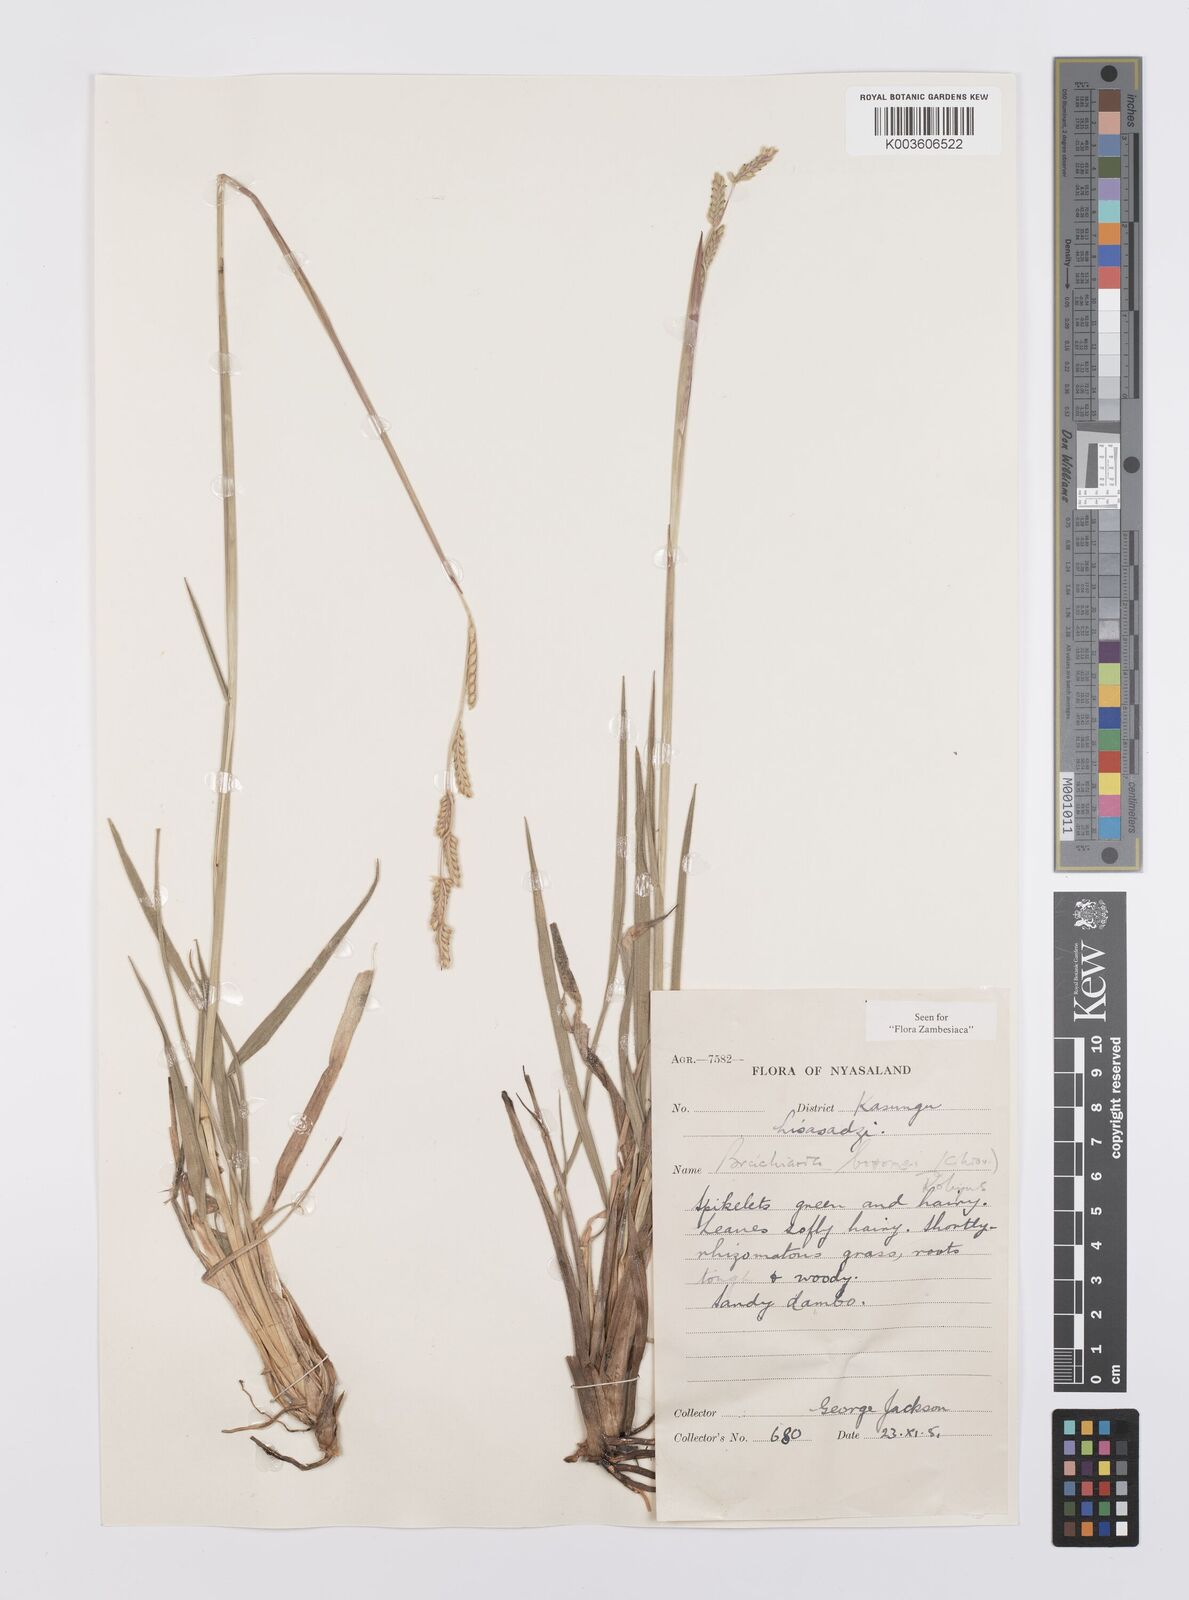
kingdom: Plantae
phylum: Tracheophyta
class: Liliopsida
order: Poales
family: Poaceae
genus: Urochloa
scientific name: Urochloa bovonei
